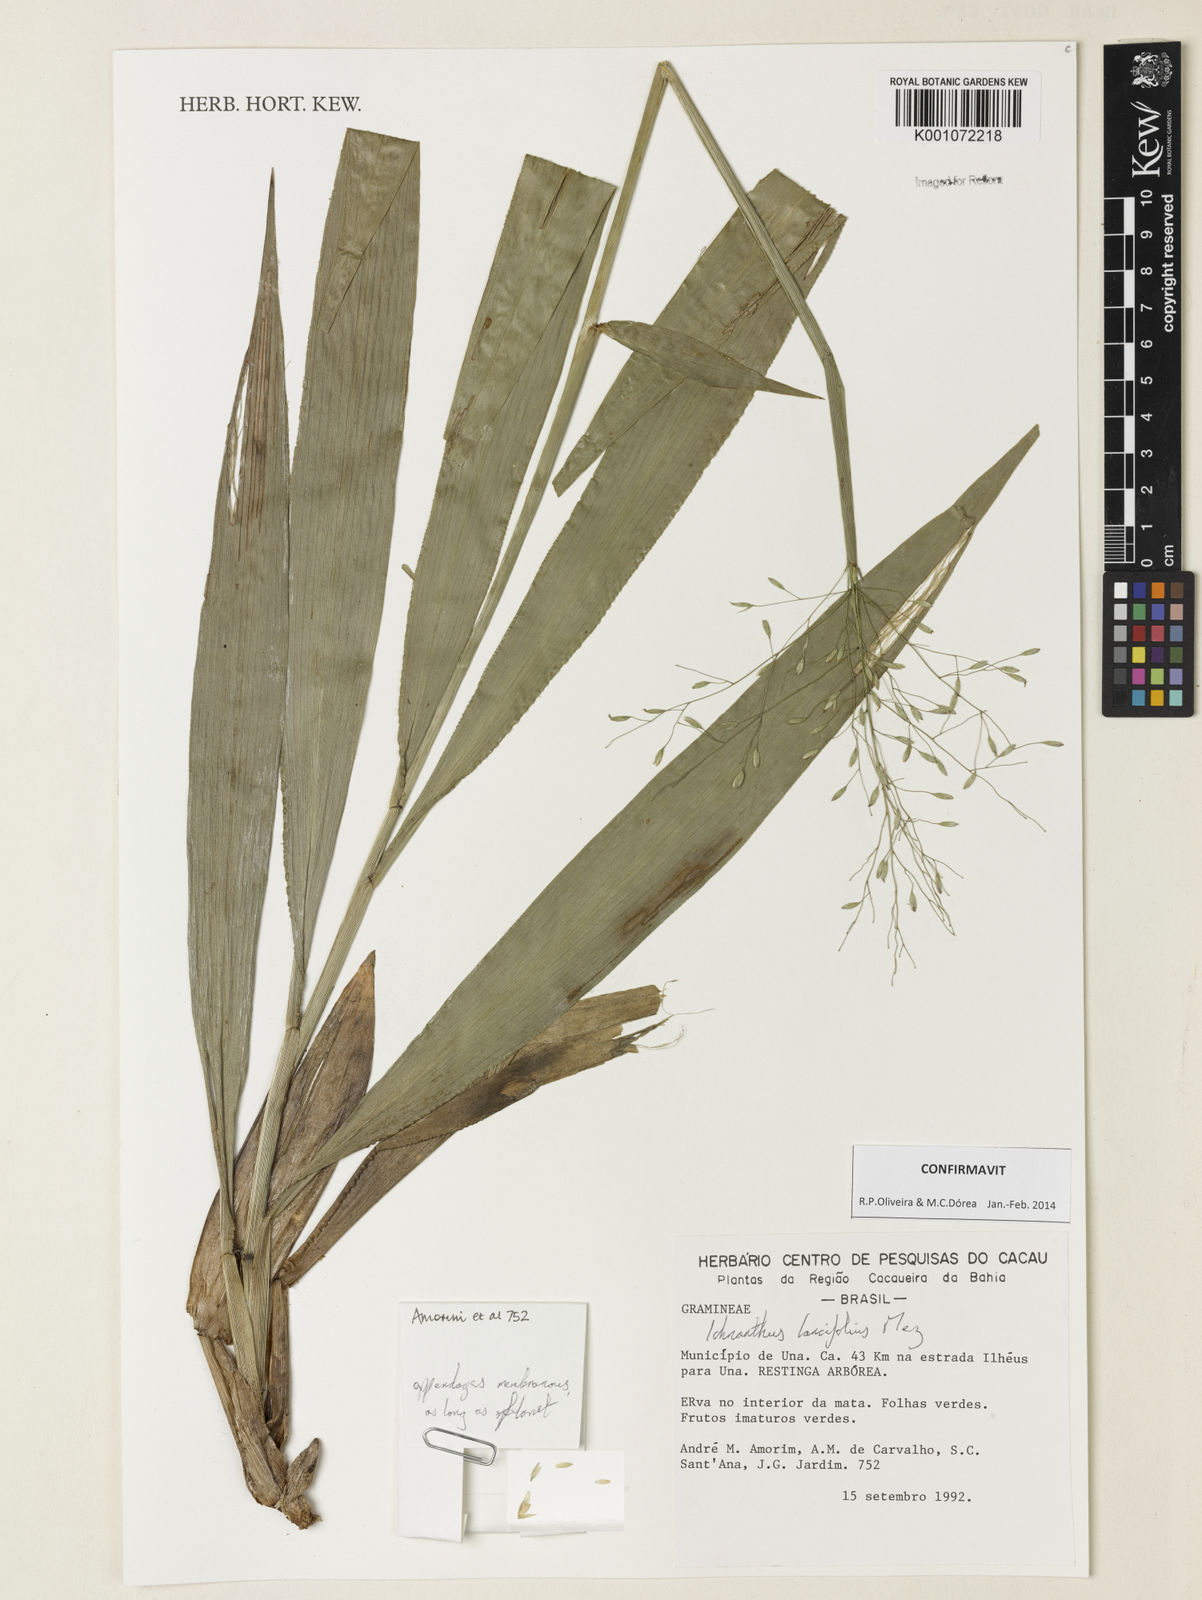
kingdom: Plantae
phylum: Tracheophyta
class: Liliopsida
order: Poales
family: Poaceae
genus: Ichnanthus
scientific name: Ichnanthus lancifolius
